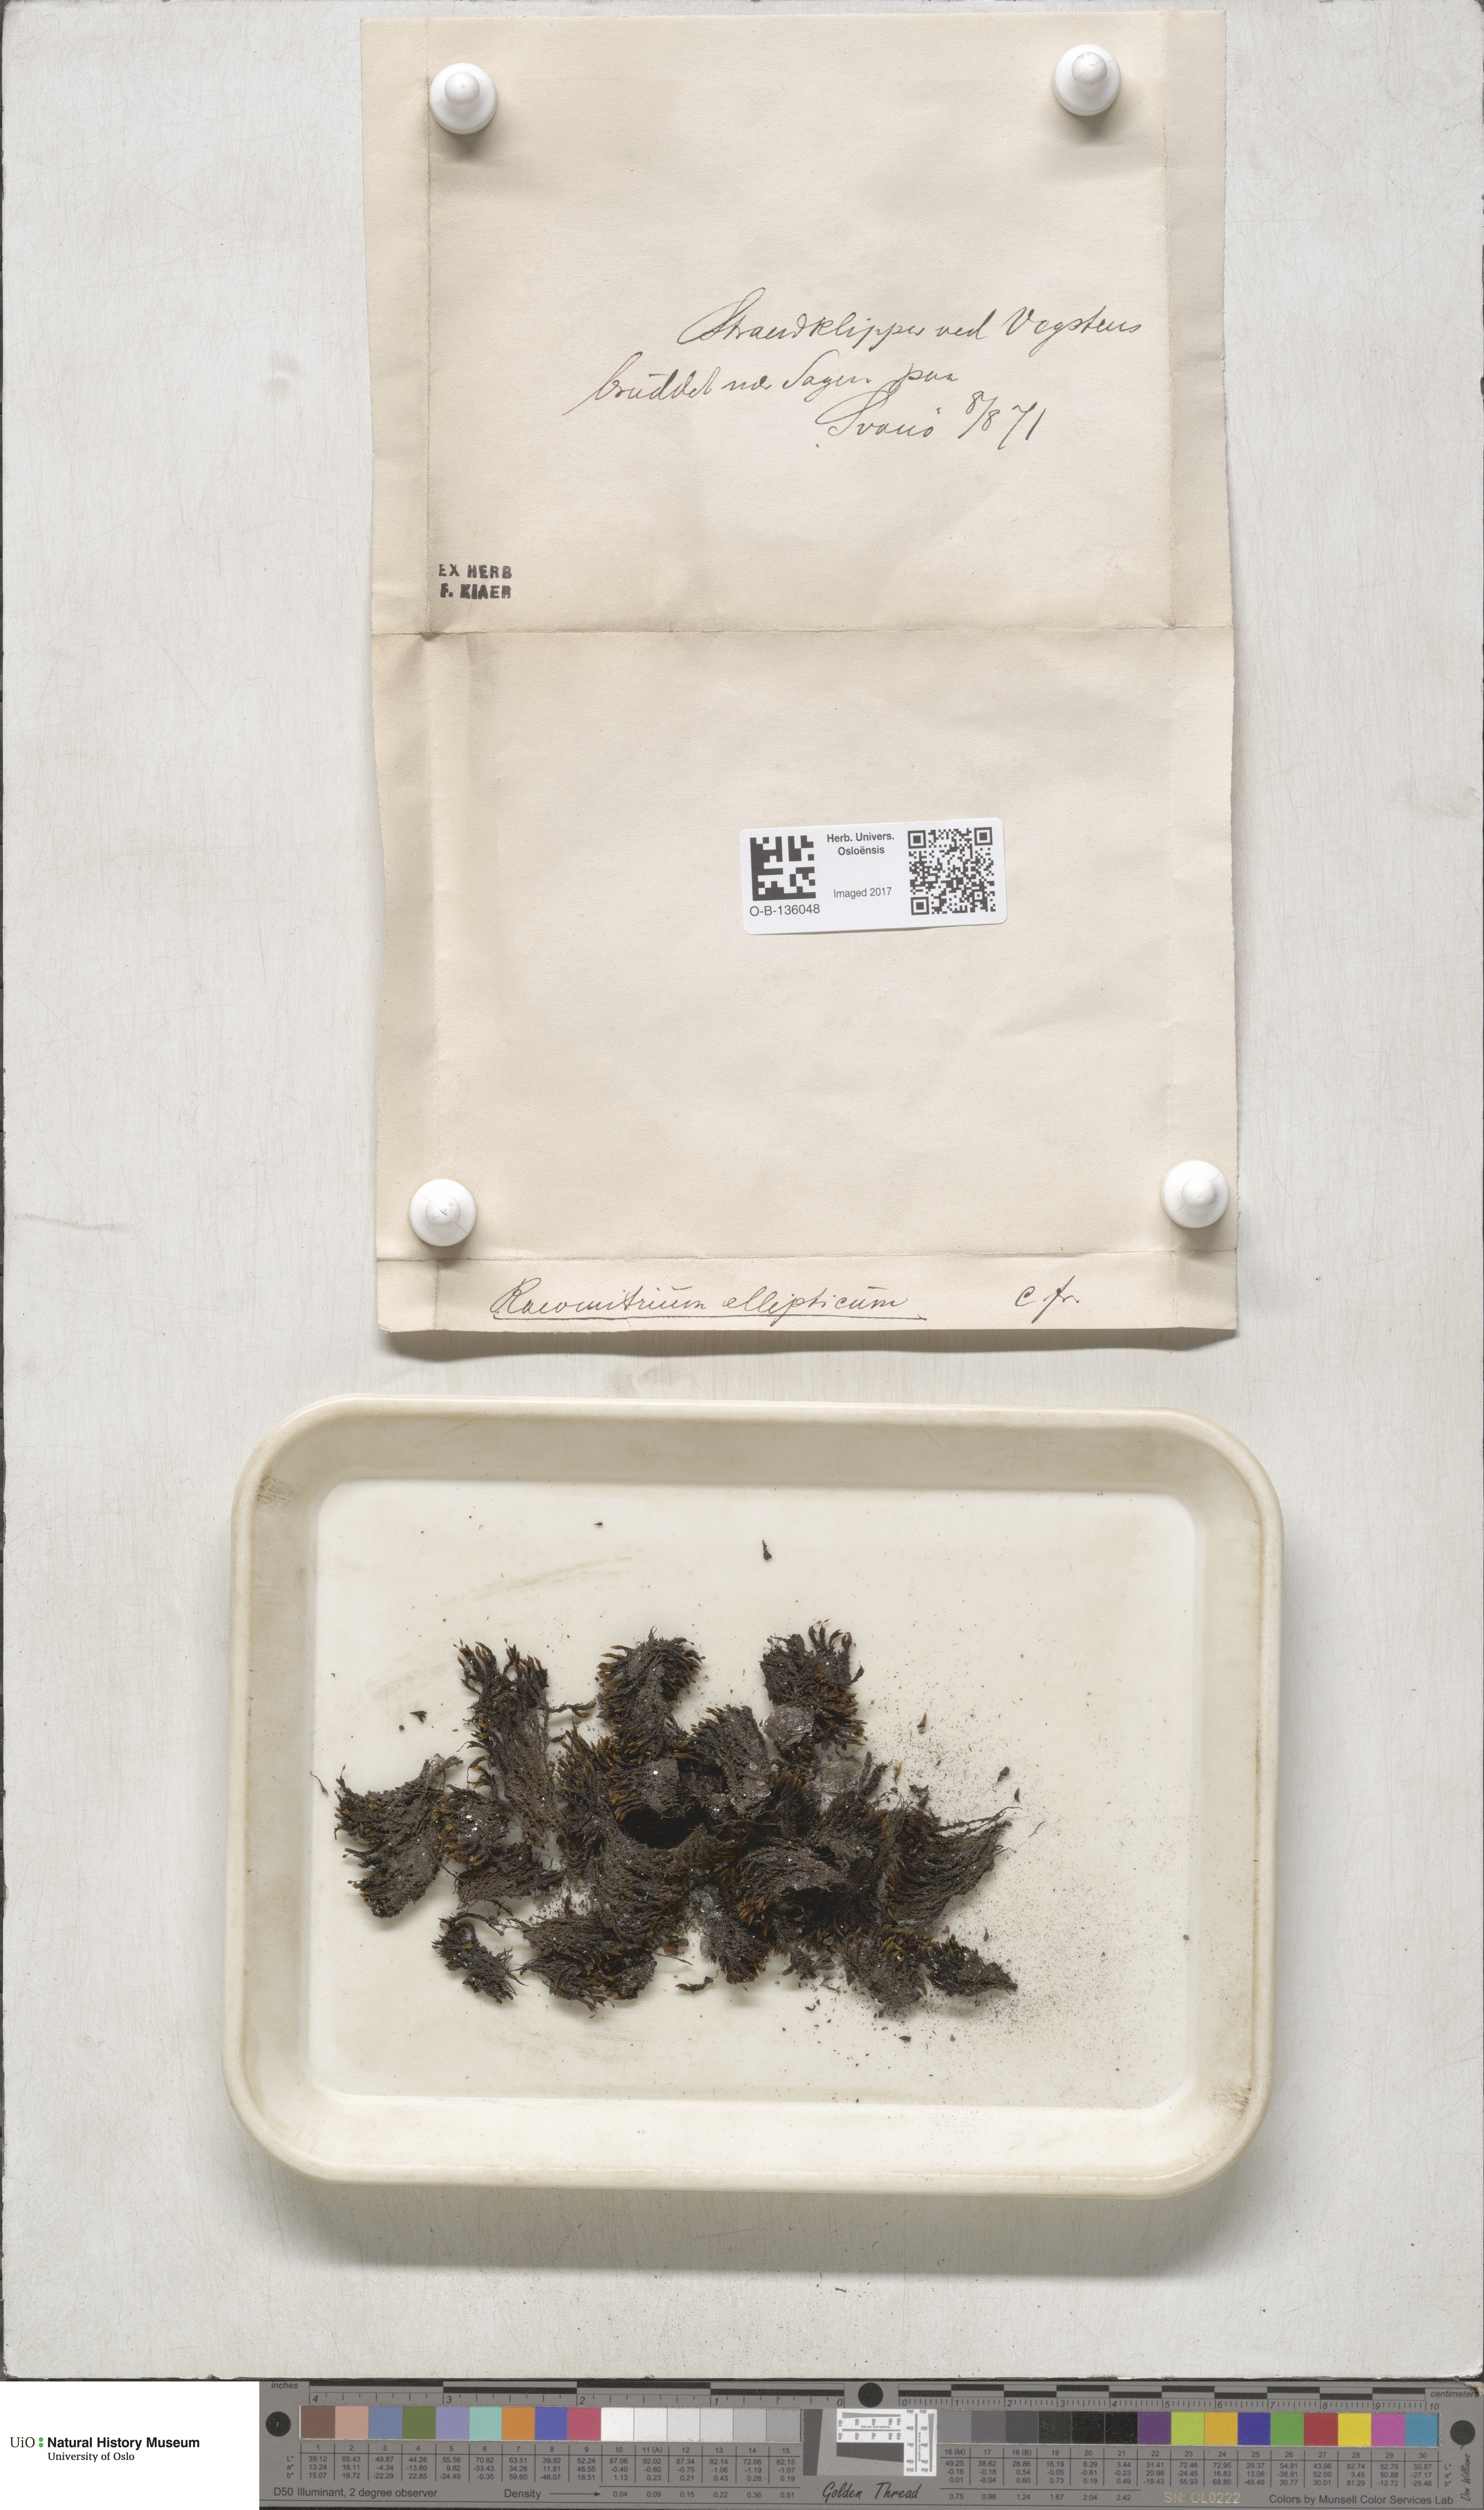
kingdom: Plantae
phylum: Bryophyta
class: Bryopsida
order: Grimmiales
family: Grimmiaceae
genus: Bucklandiella
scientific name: Bucklandiella elliptica
